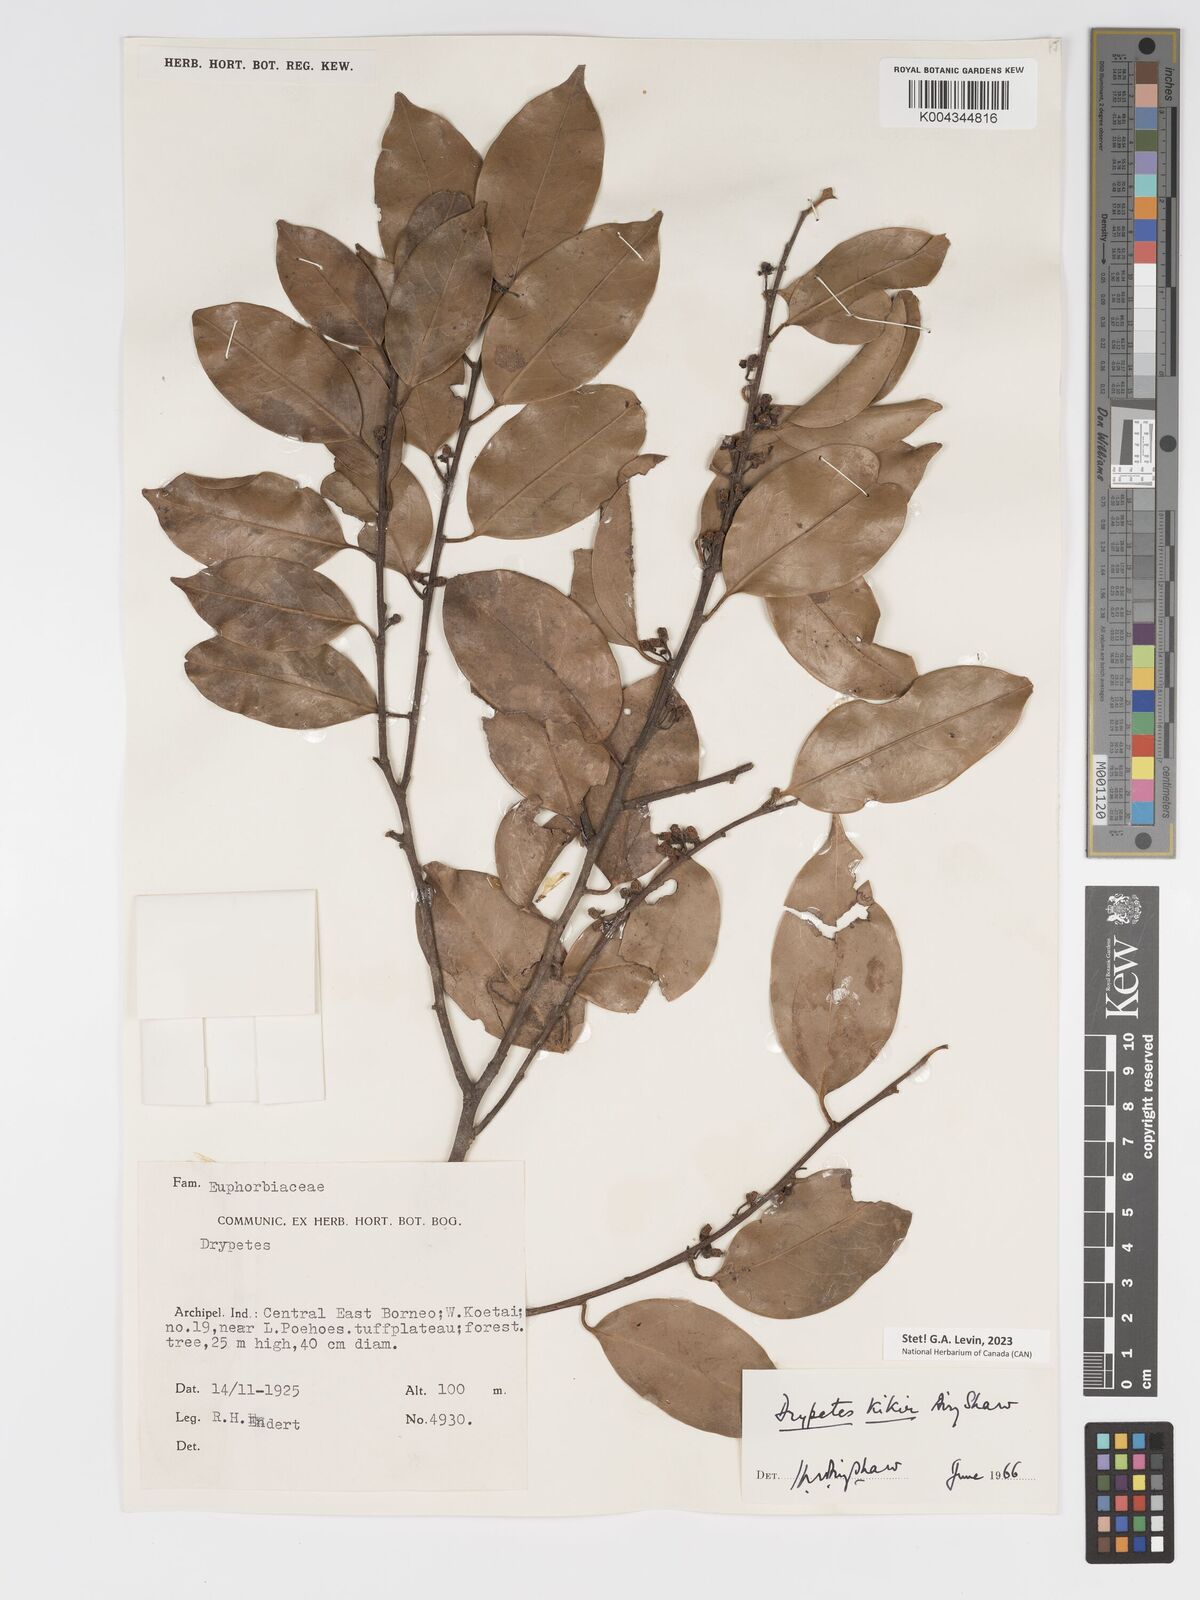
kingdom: Plantae
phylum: Tracheophyta
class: Magnoliopsida
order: Malpighiales
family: Putranjivaceae
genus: Drypetes
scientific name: Drypetes kikir
